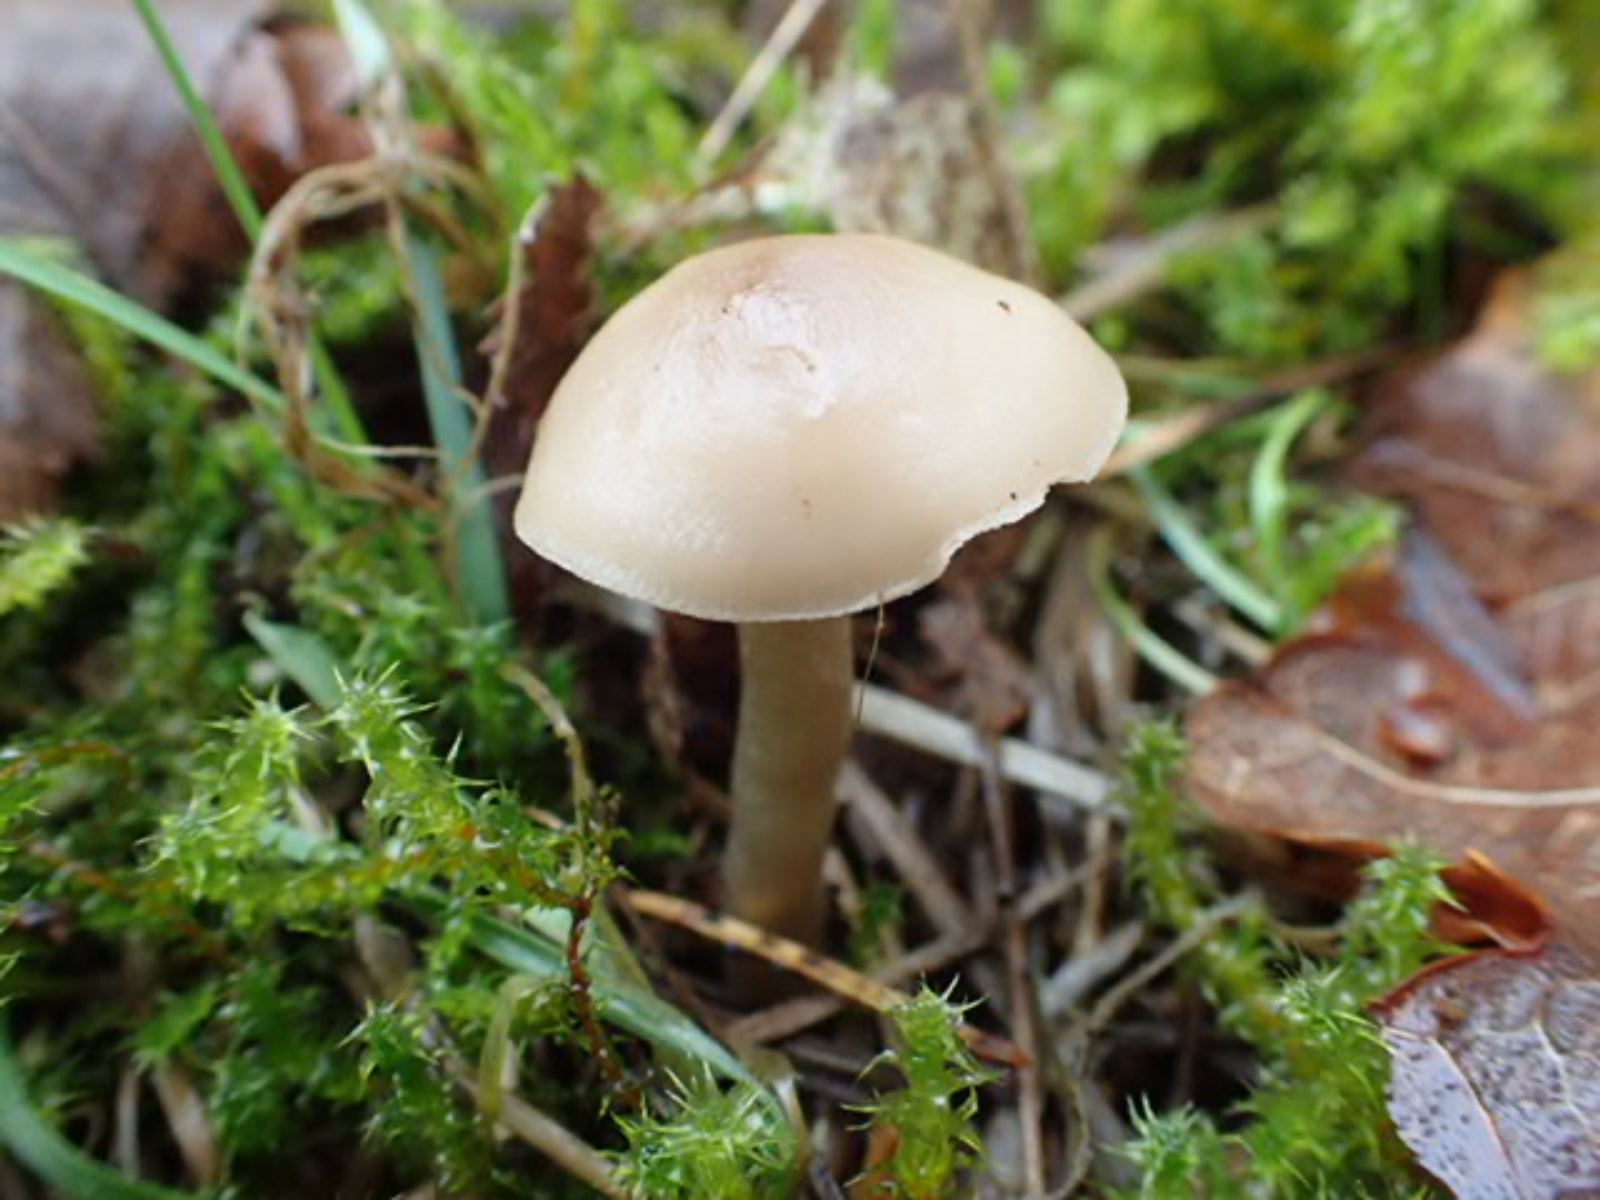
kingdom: Fungi
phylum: Basidiomycota
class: Agaricomycetes
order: Agaricales
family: Tricholomataceae
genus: Clitocybe
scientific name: Clitocybe
